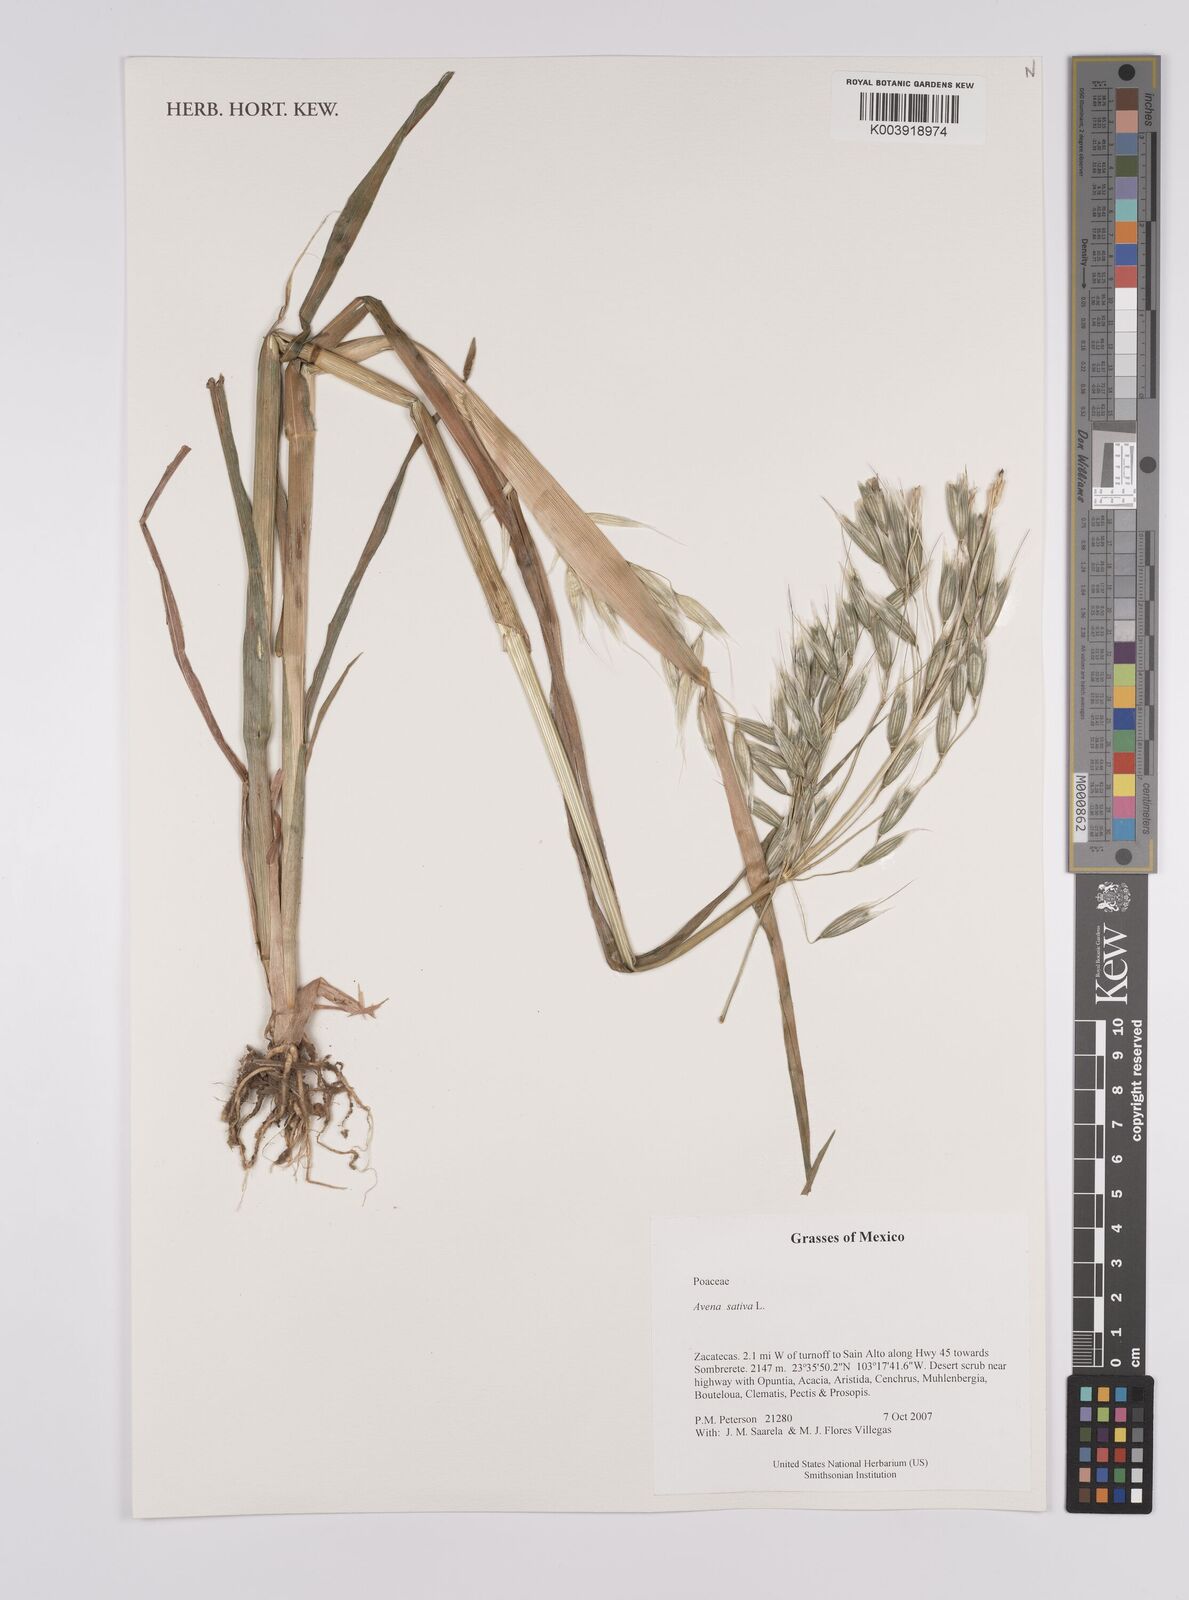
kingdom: Plantae
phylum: Tracheophyta
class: Liliopsida
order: Poales
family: Poaceae
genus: Avena
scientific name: Avena sativa
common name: Oat
